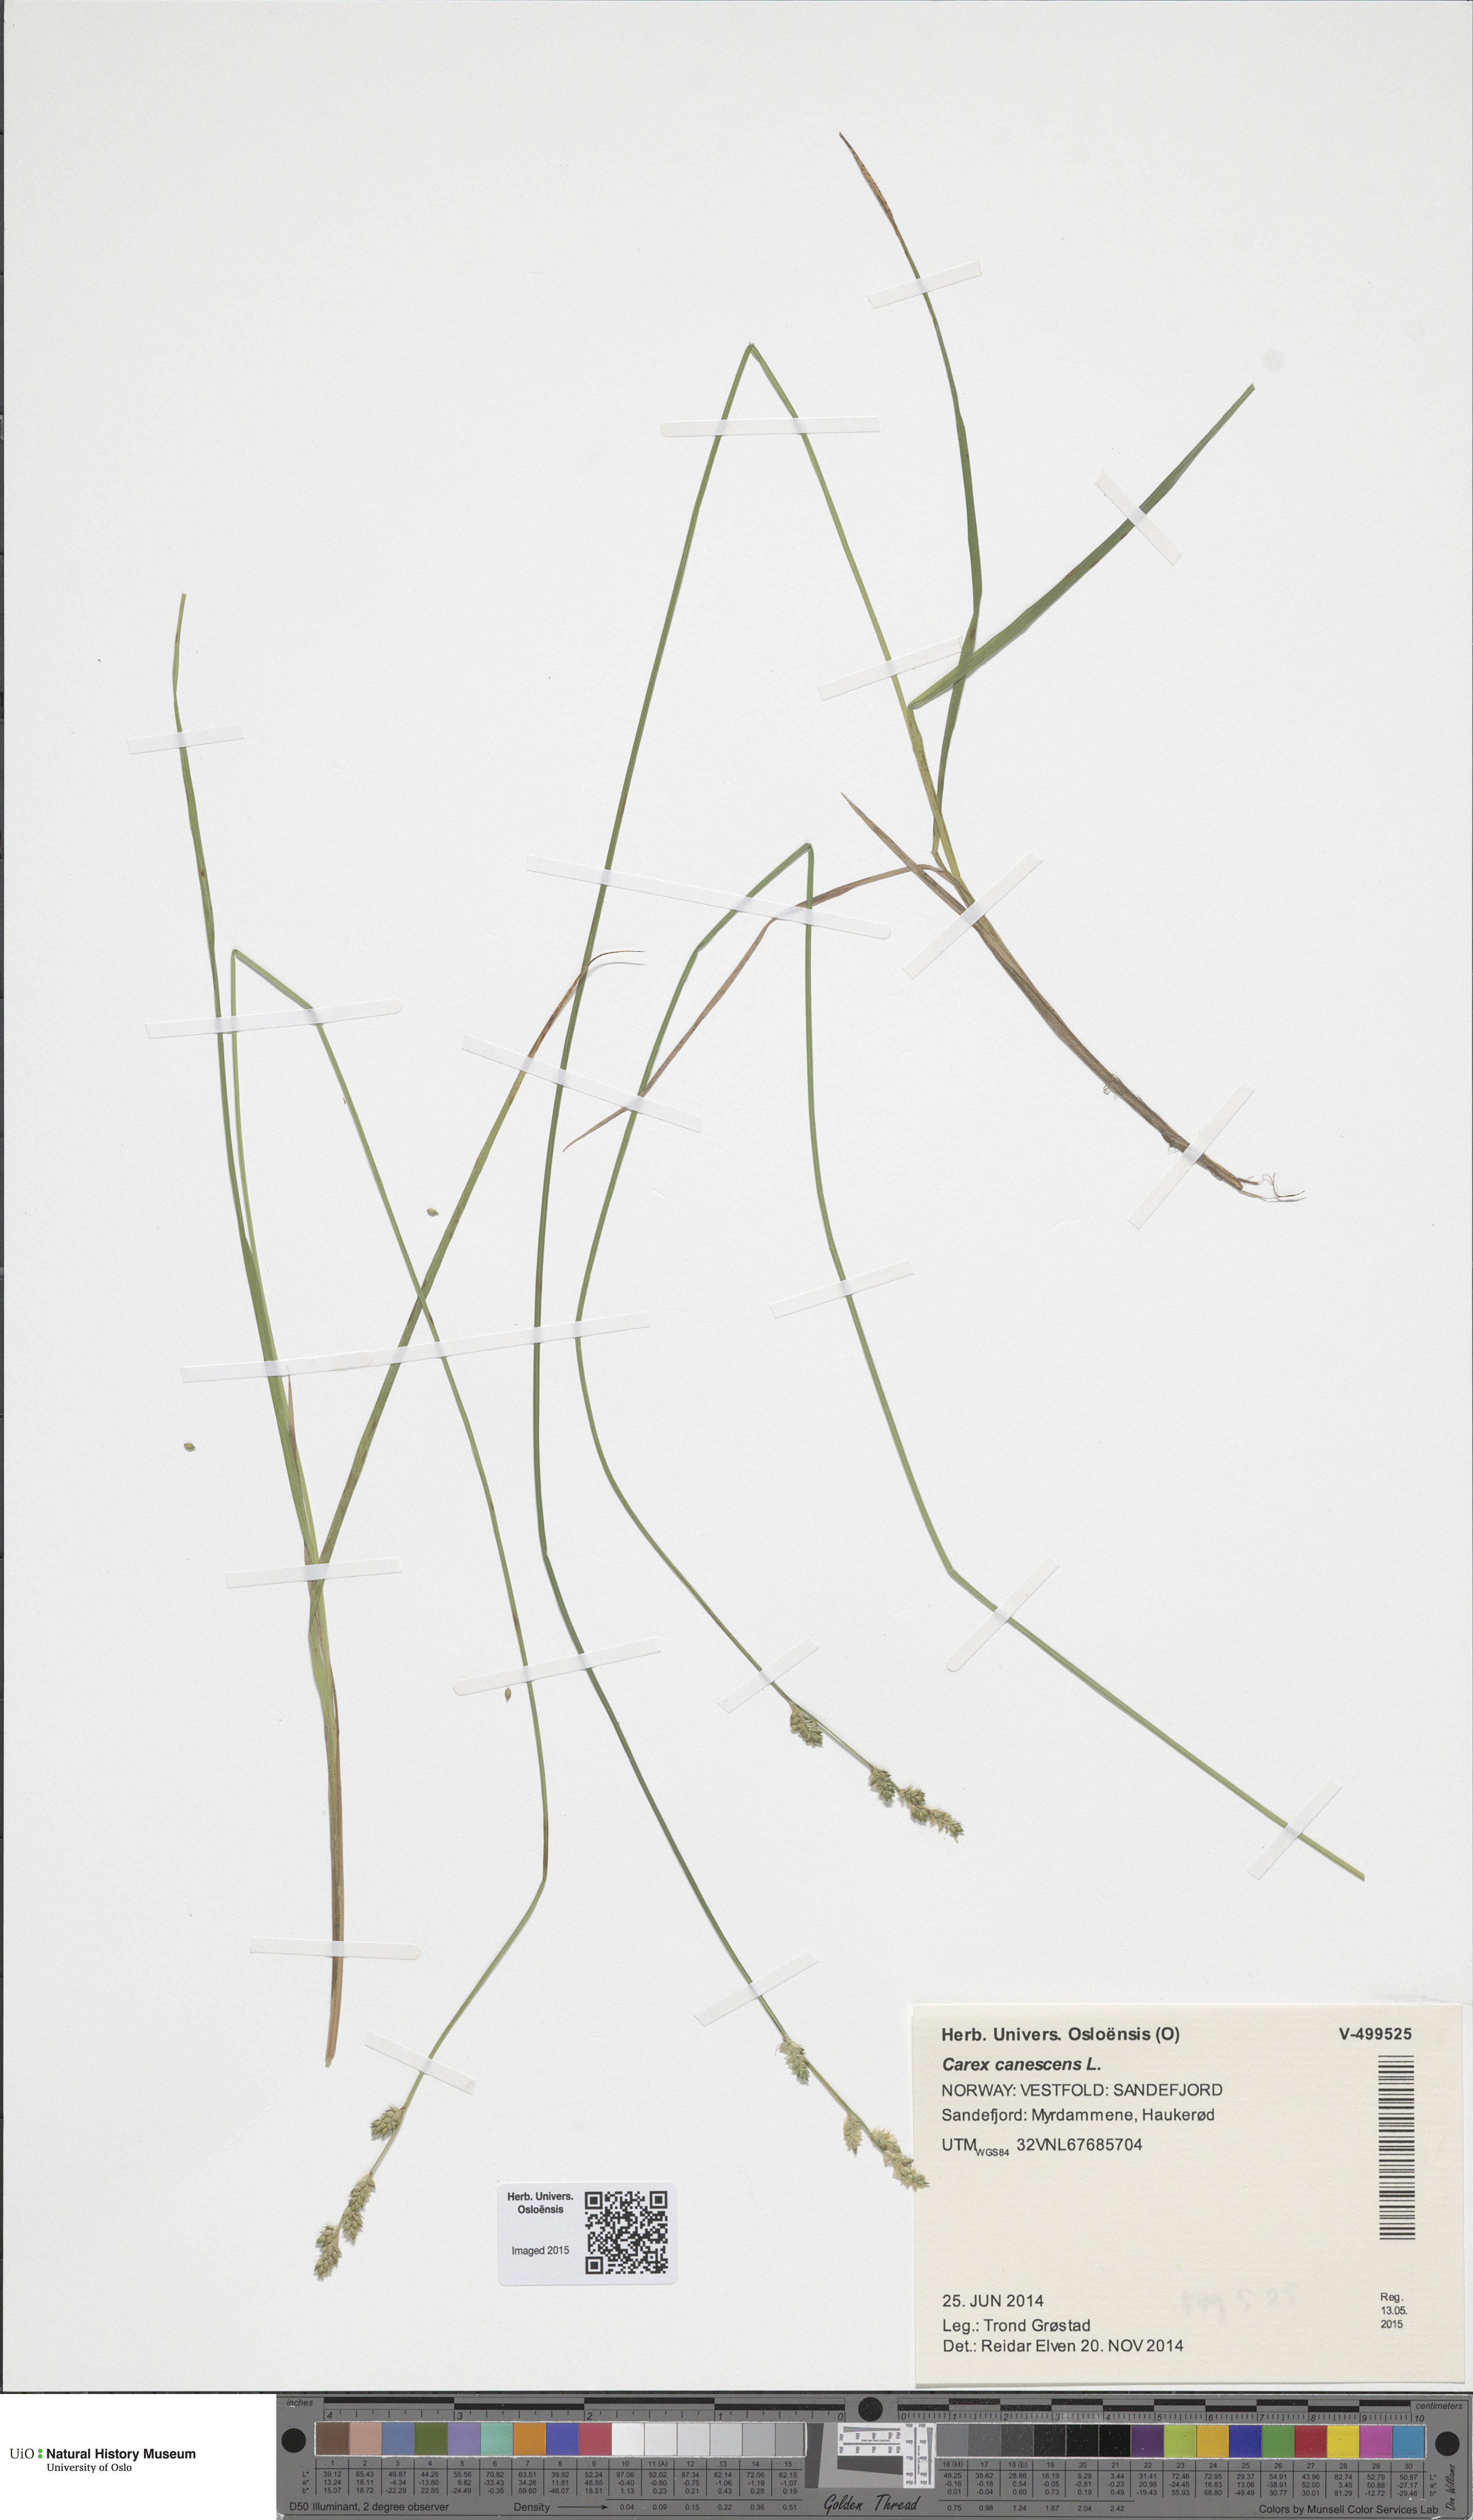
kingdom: Plantae
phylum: Tracheophyta
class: Liliopsida
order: Poales
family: Cyperaceae
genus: Carex
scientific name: Carex canescens
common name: White sedge
